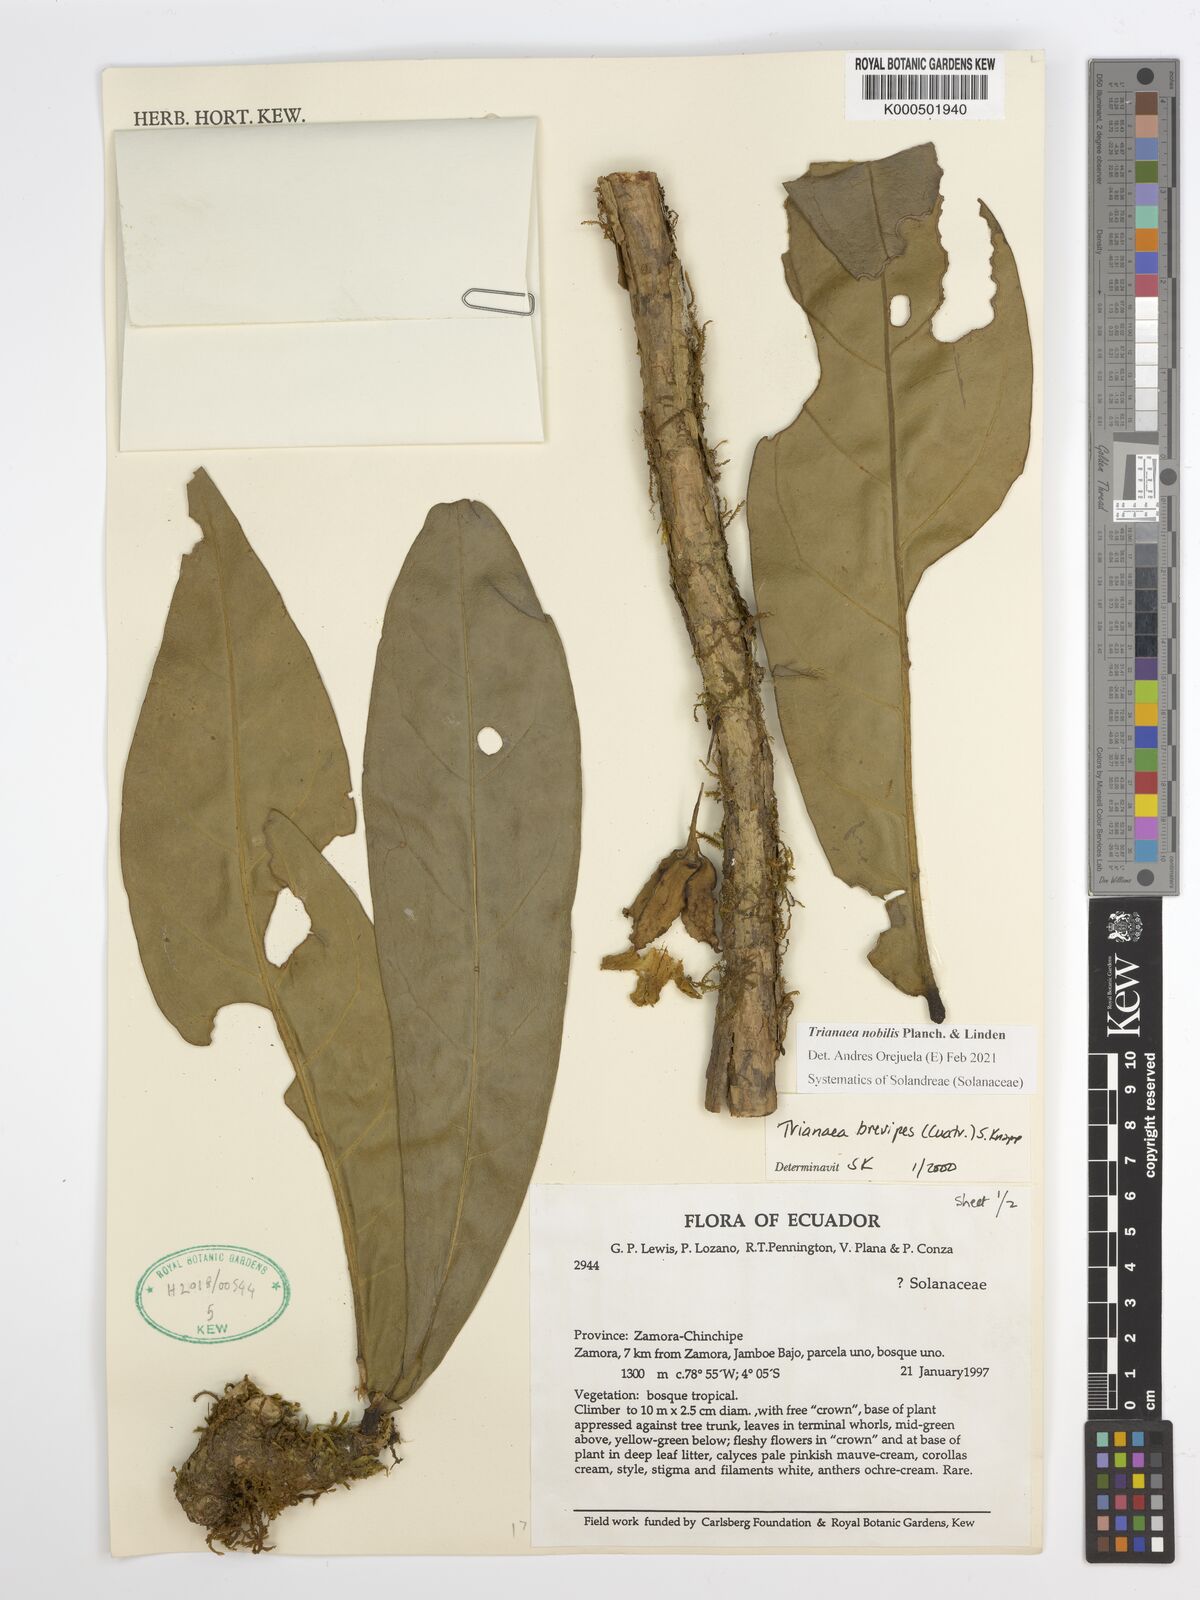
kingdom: Plantae
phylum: Tracheophyta
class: Magnoliopsida
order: Solanales
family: Solanaceae
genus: Trianaea
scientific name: Trianaea nobilis
